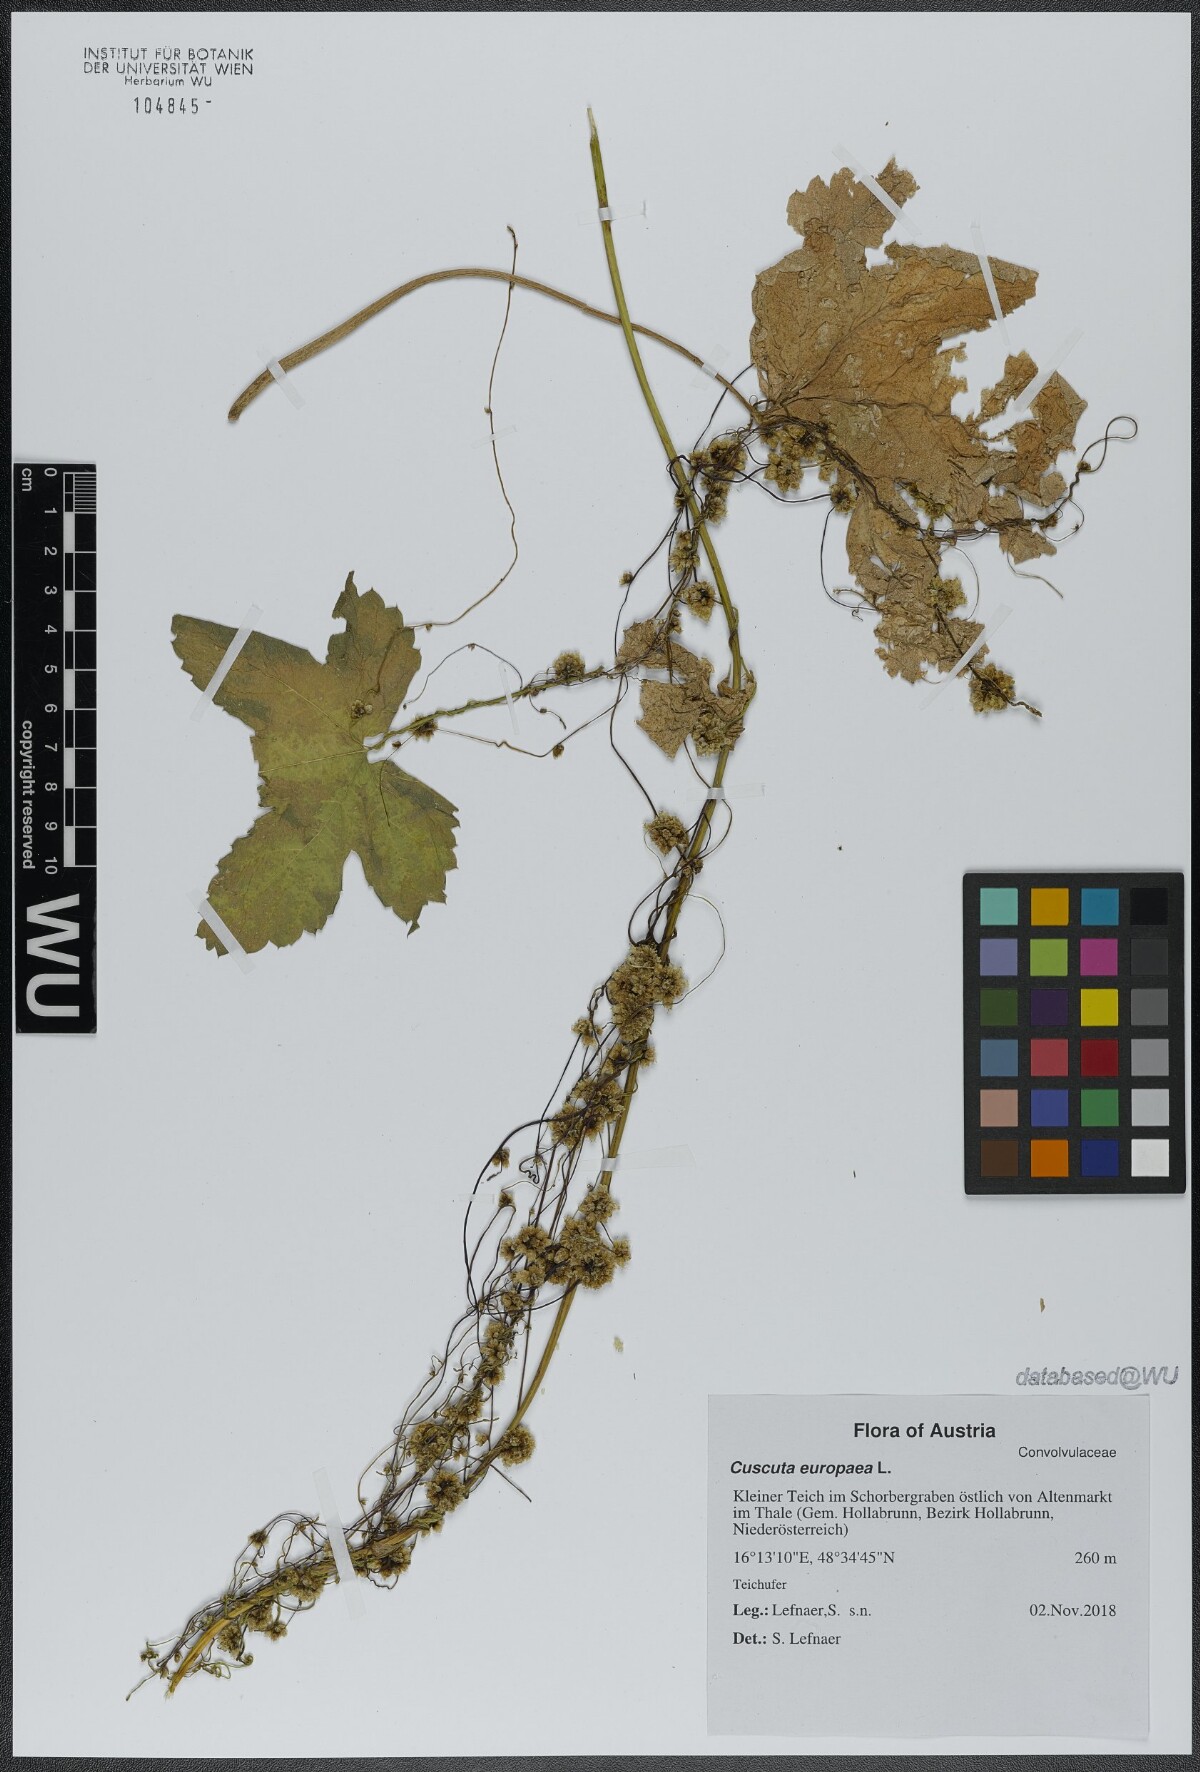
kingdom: Plantae
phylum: Tracheophyta
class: Magnoliopsida
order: Solanales
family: Convolvulaceae
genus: Cuscuta
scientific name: Cuscuta europaea
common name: Greater dodder
